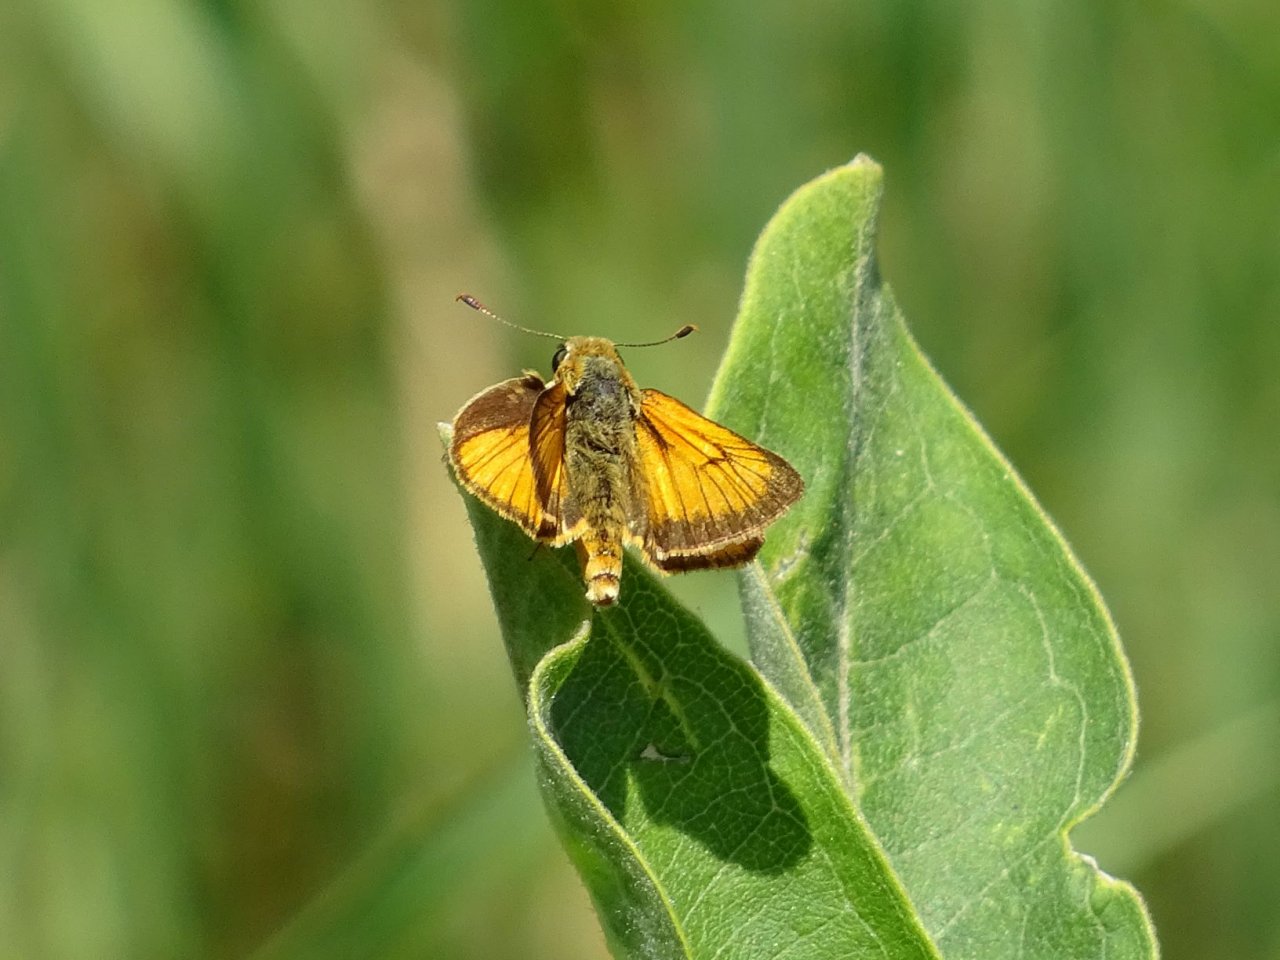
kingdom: Animalia
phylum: Arthropoda
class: Insecta
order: Lepidoptera
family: Hesperiidae
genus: Atrytone
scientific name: Atrytone delaware
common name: Delaware Skipper
